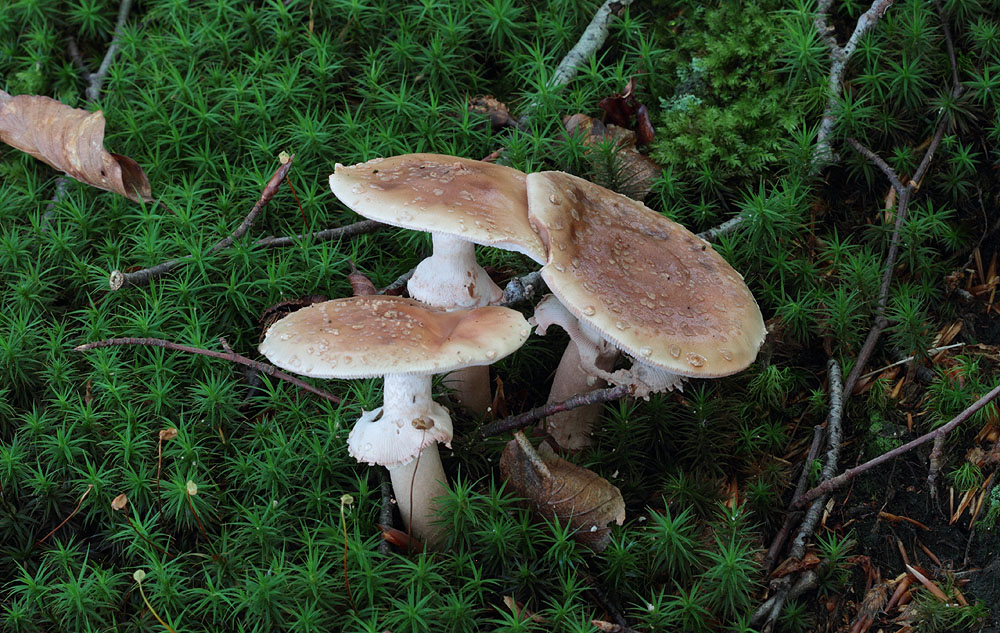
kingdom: Fungi
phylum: Basidiomycota
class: Agaricomycetes
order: Agaricales
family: Amanitaceae
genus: Amanita
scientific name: Amanita rubescens
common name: rødmende fluesvamp
